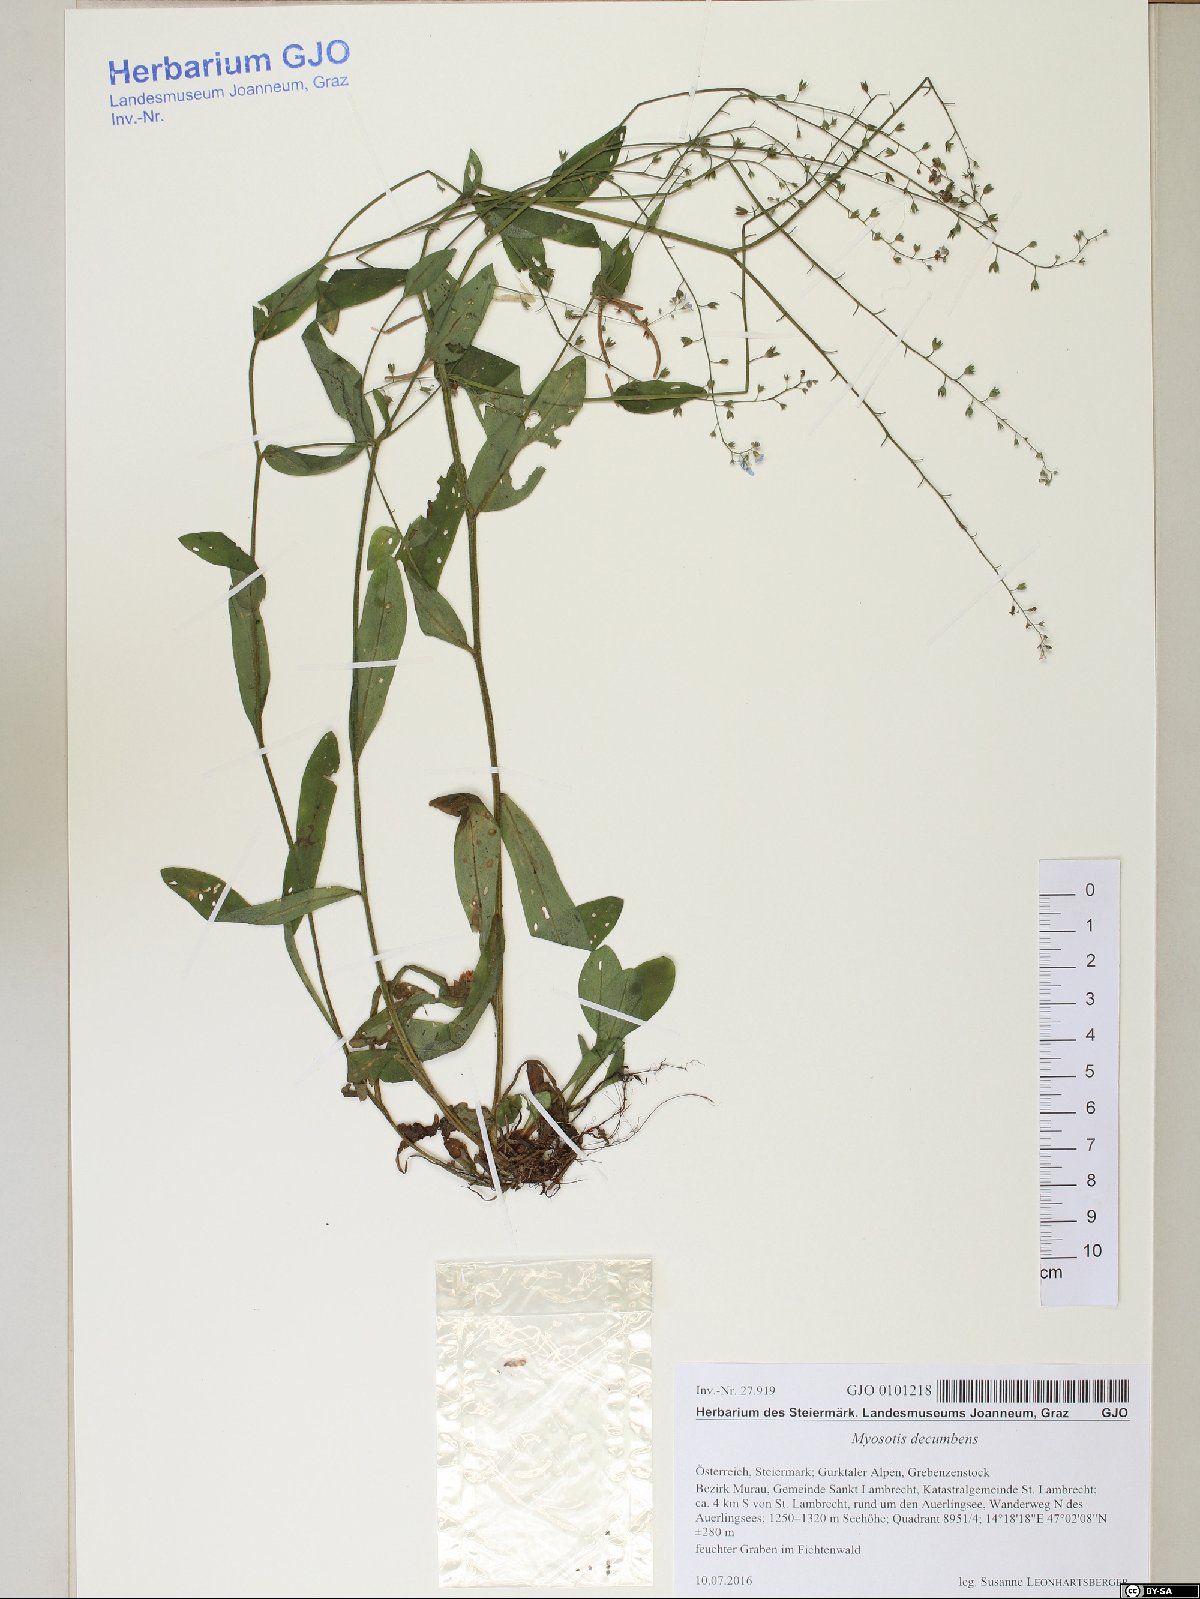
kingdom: Plantae
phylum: Tracheophyta
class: Magnoliopsida
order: Boraginales
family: Boraginaceae
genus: Myosotis
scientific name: Myosotis decumbens
